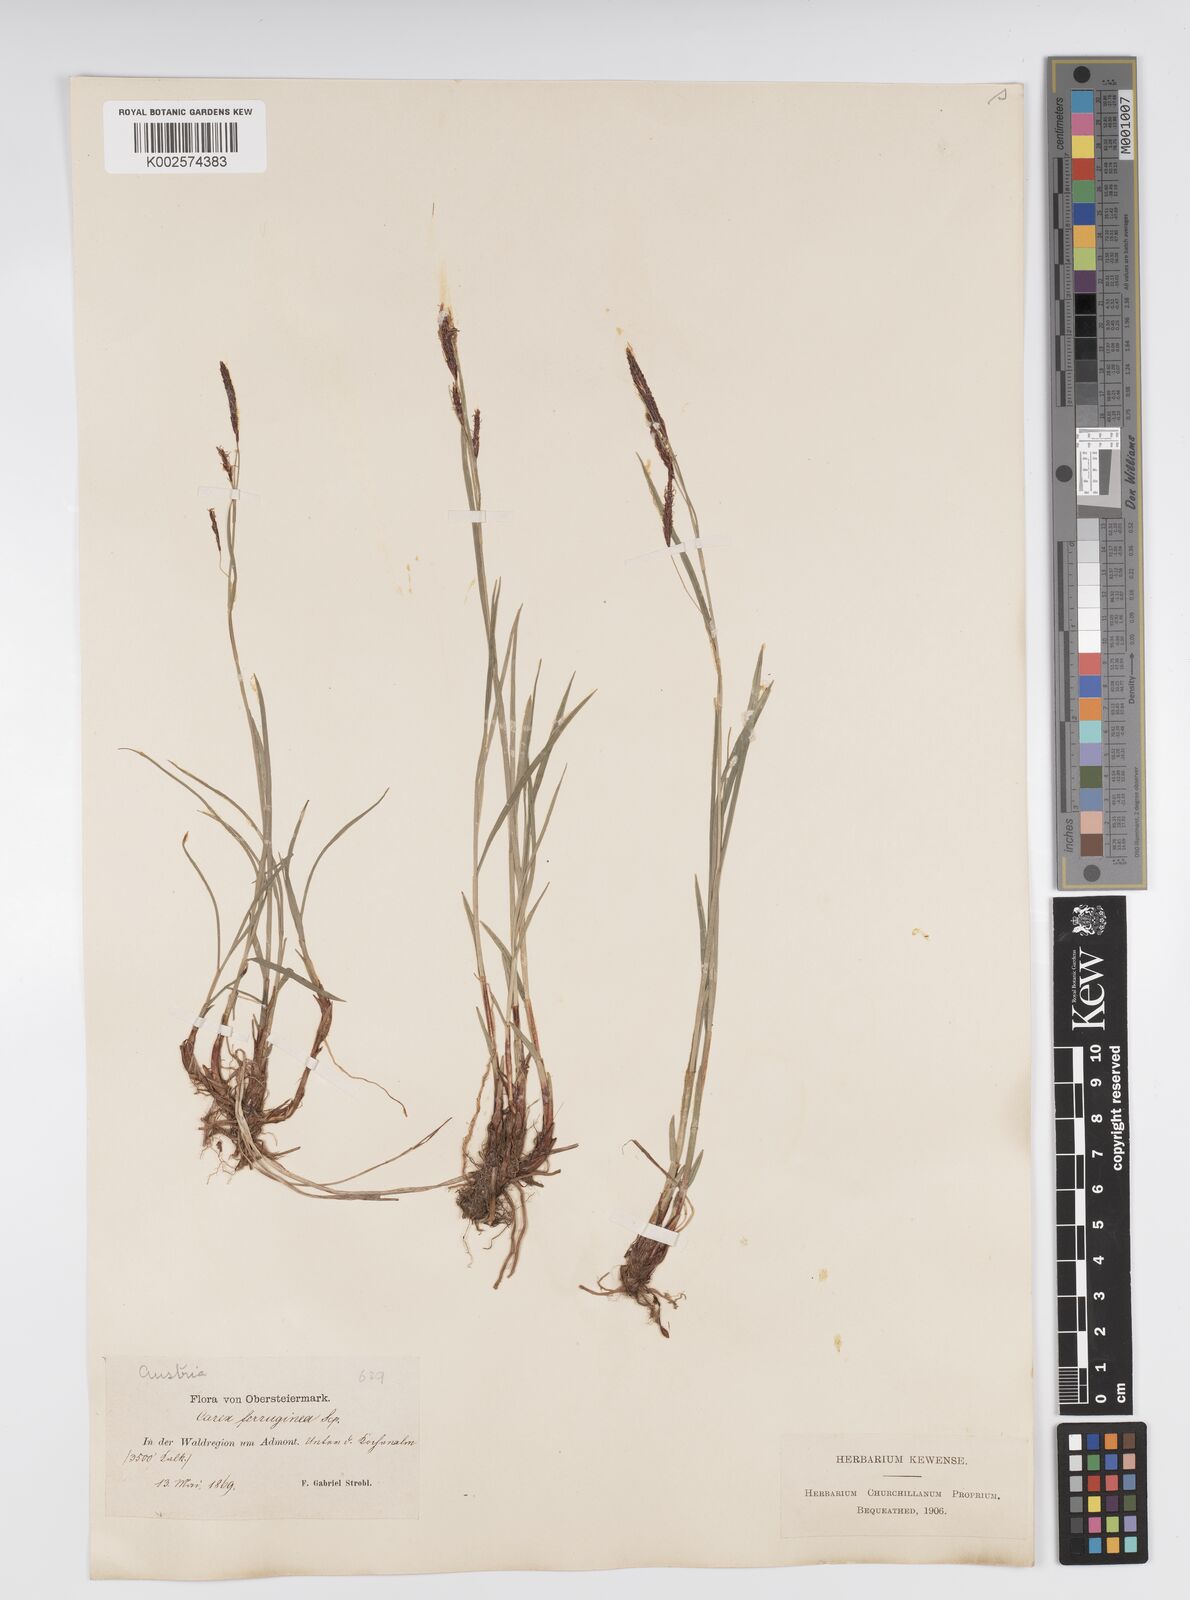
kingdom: Plantae
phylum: Tracheophyta
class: Liliopsida
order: Poales
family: Cyperaceae
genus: Carex
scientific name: Carex firma
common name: Dwarf pillow sedge
